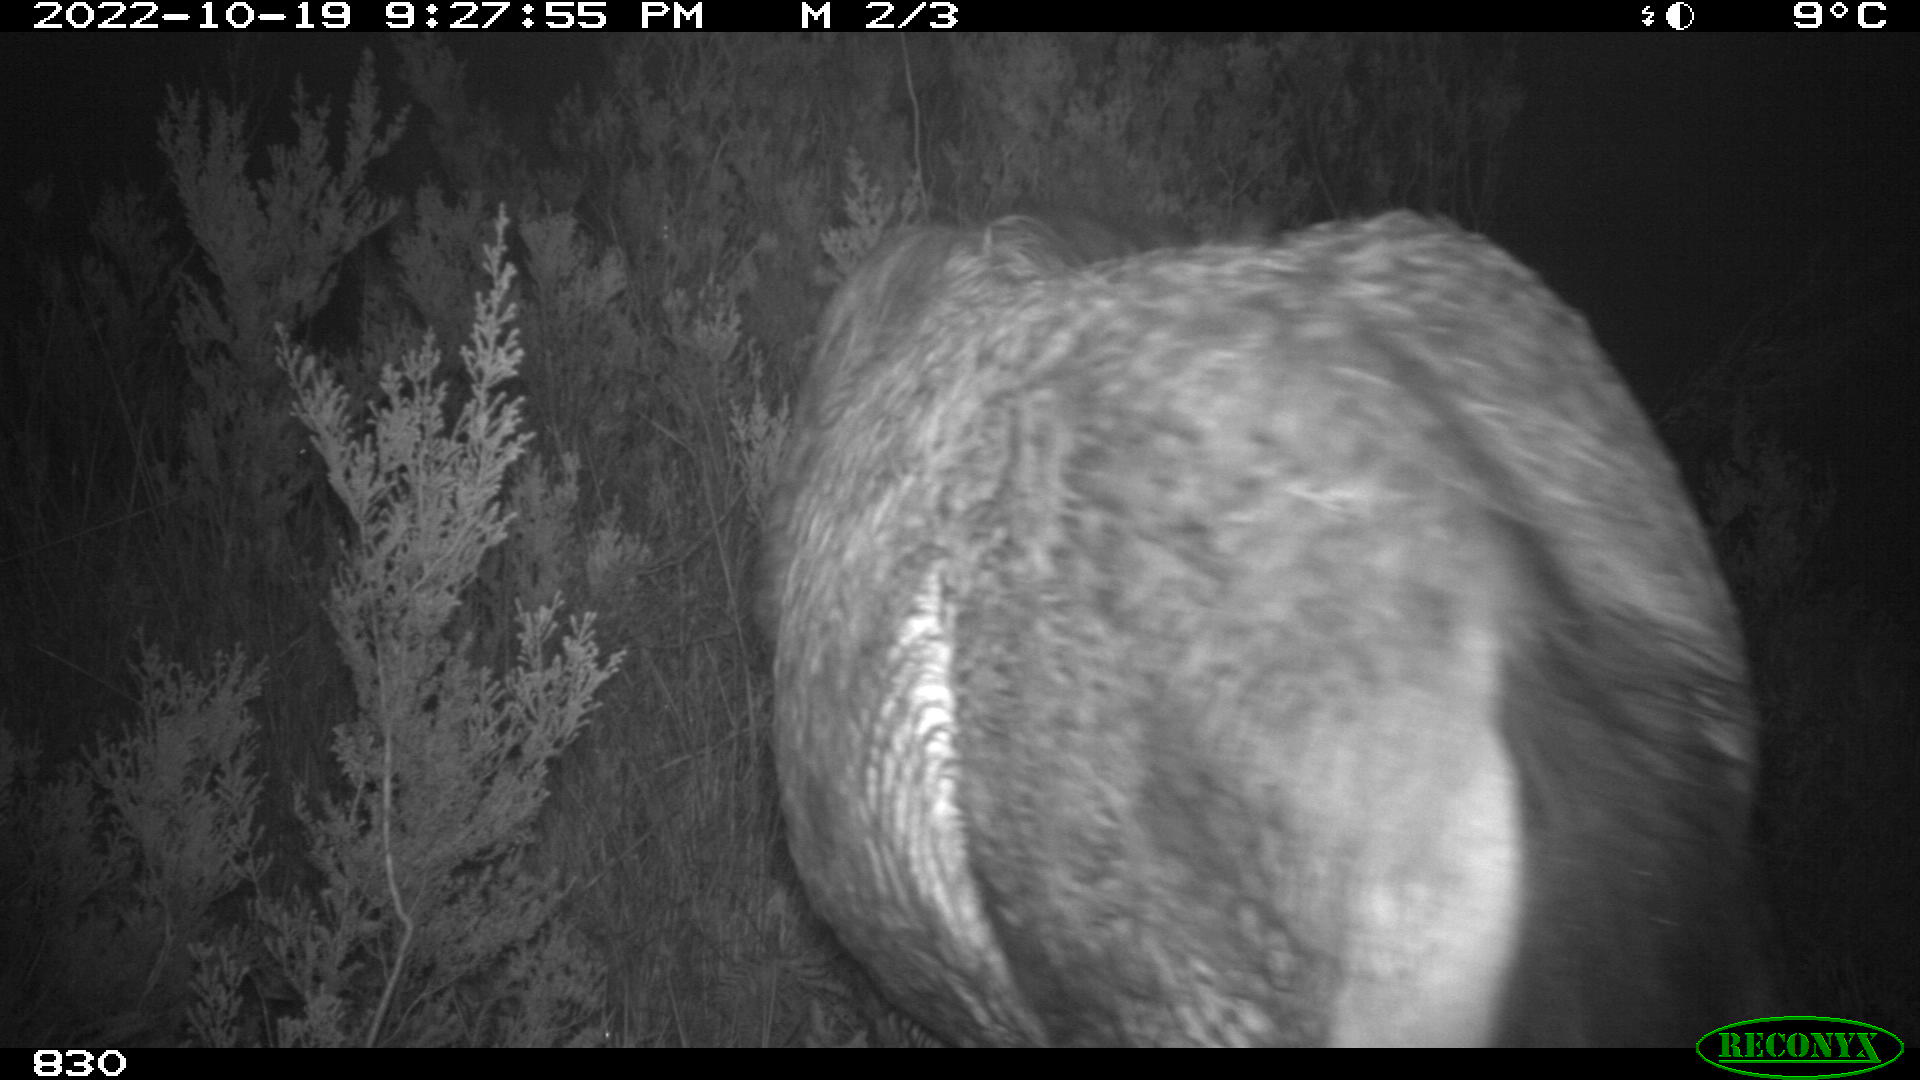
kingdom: Animalia
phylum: Chordata
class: Mammalia
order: Perissodactyla
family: Equidae
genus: Equus
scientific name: Equus caballus
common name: Horse
